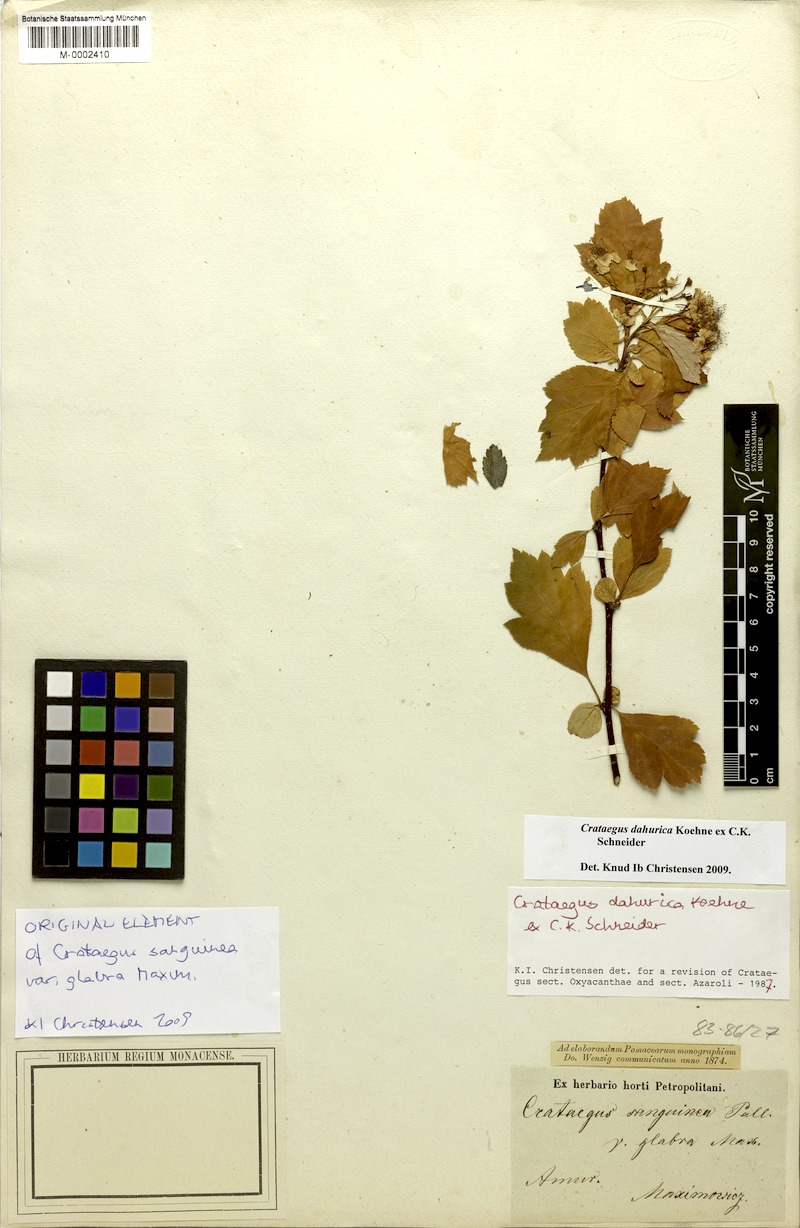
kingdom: Plantae
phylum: Tracheophyta
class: Magnoliopsida
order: Rosales
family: Rosaceae
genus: Crataegus
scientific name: Crataegus dahurica
